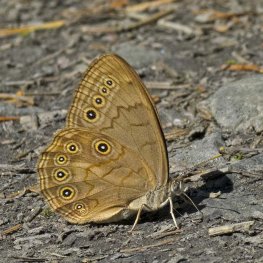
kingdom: Animalia
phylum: Arthropoda
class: Insecta
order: Lepidoptera
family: Nymphalidae
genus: Lethe
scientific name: Lethe eurydice
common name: Eyed Brown
